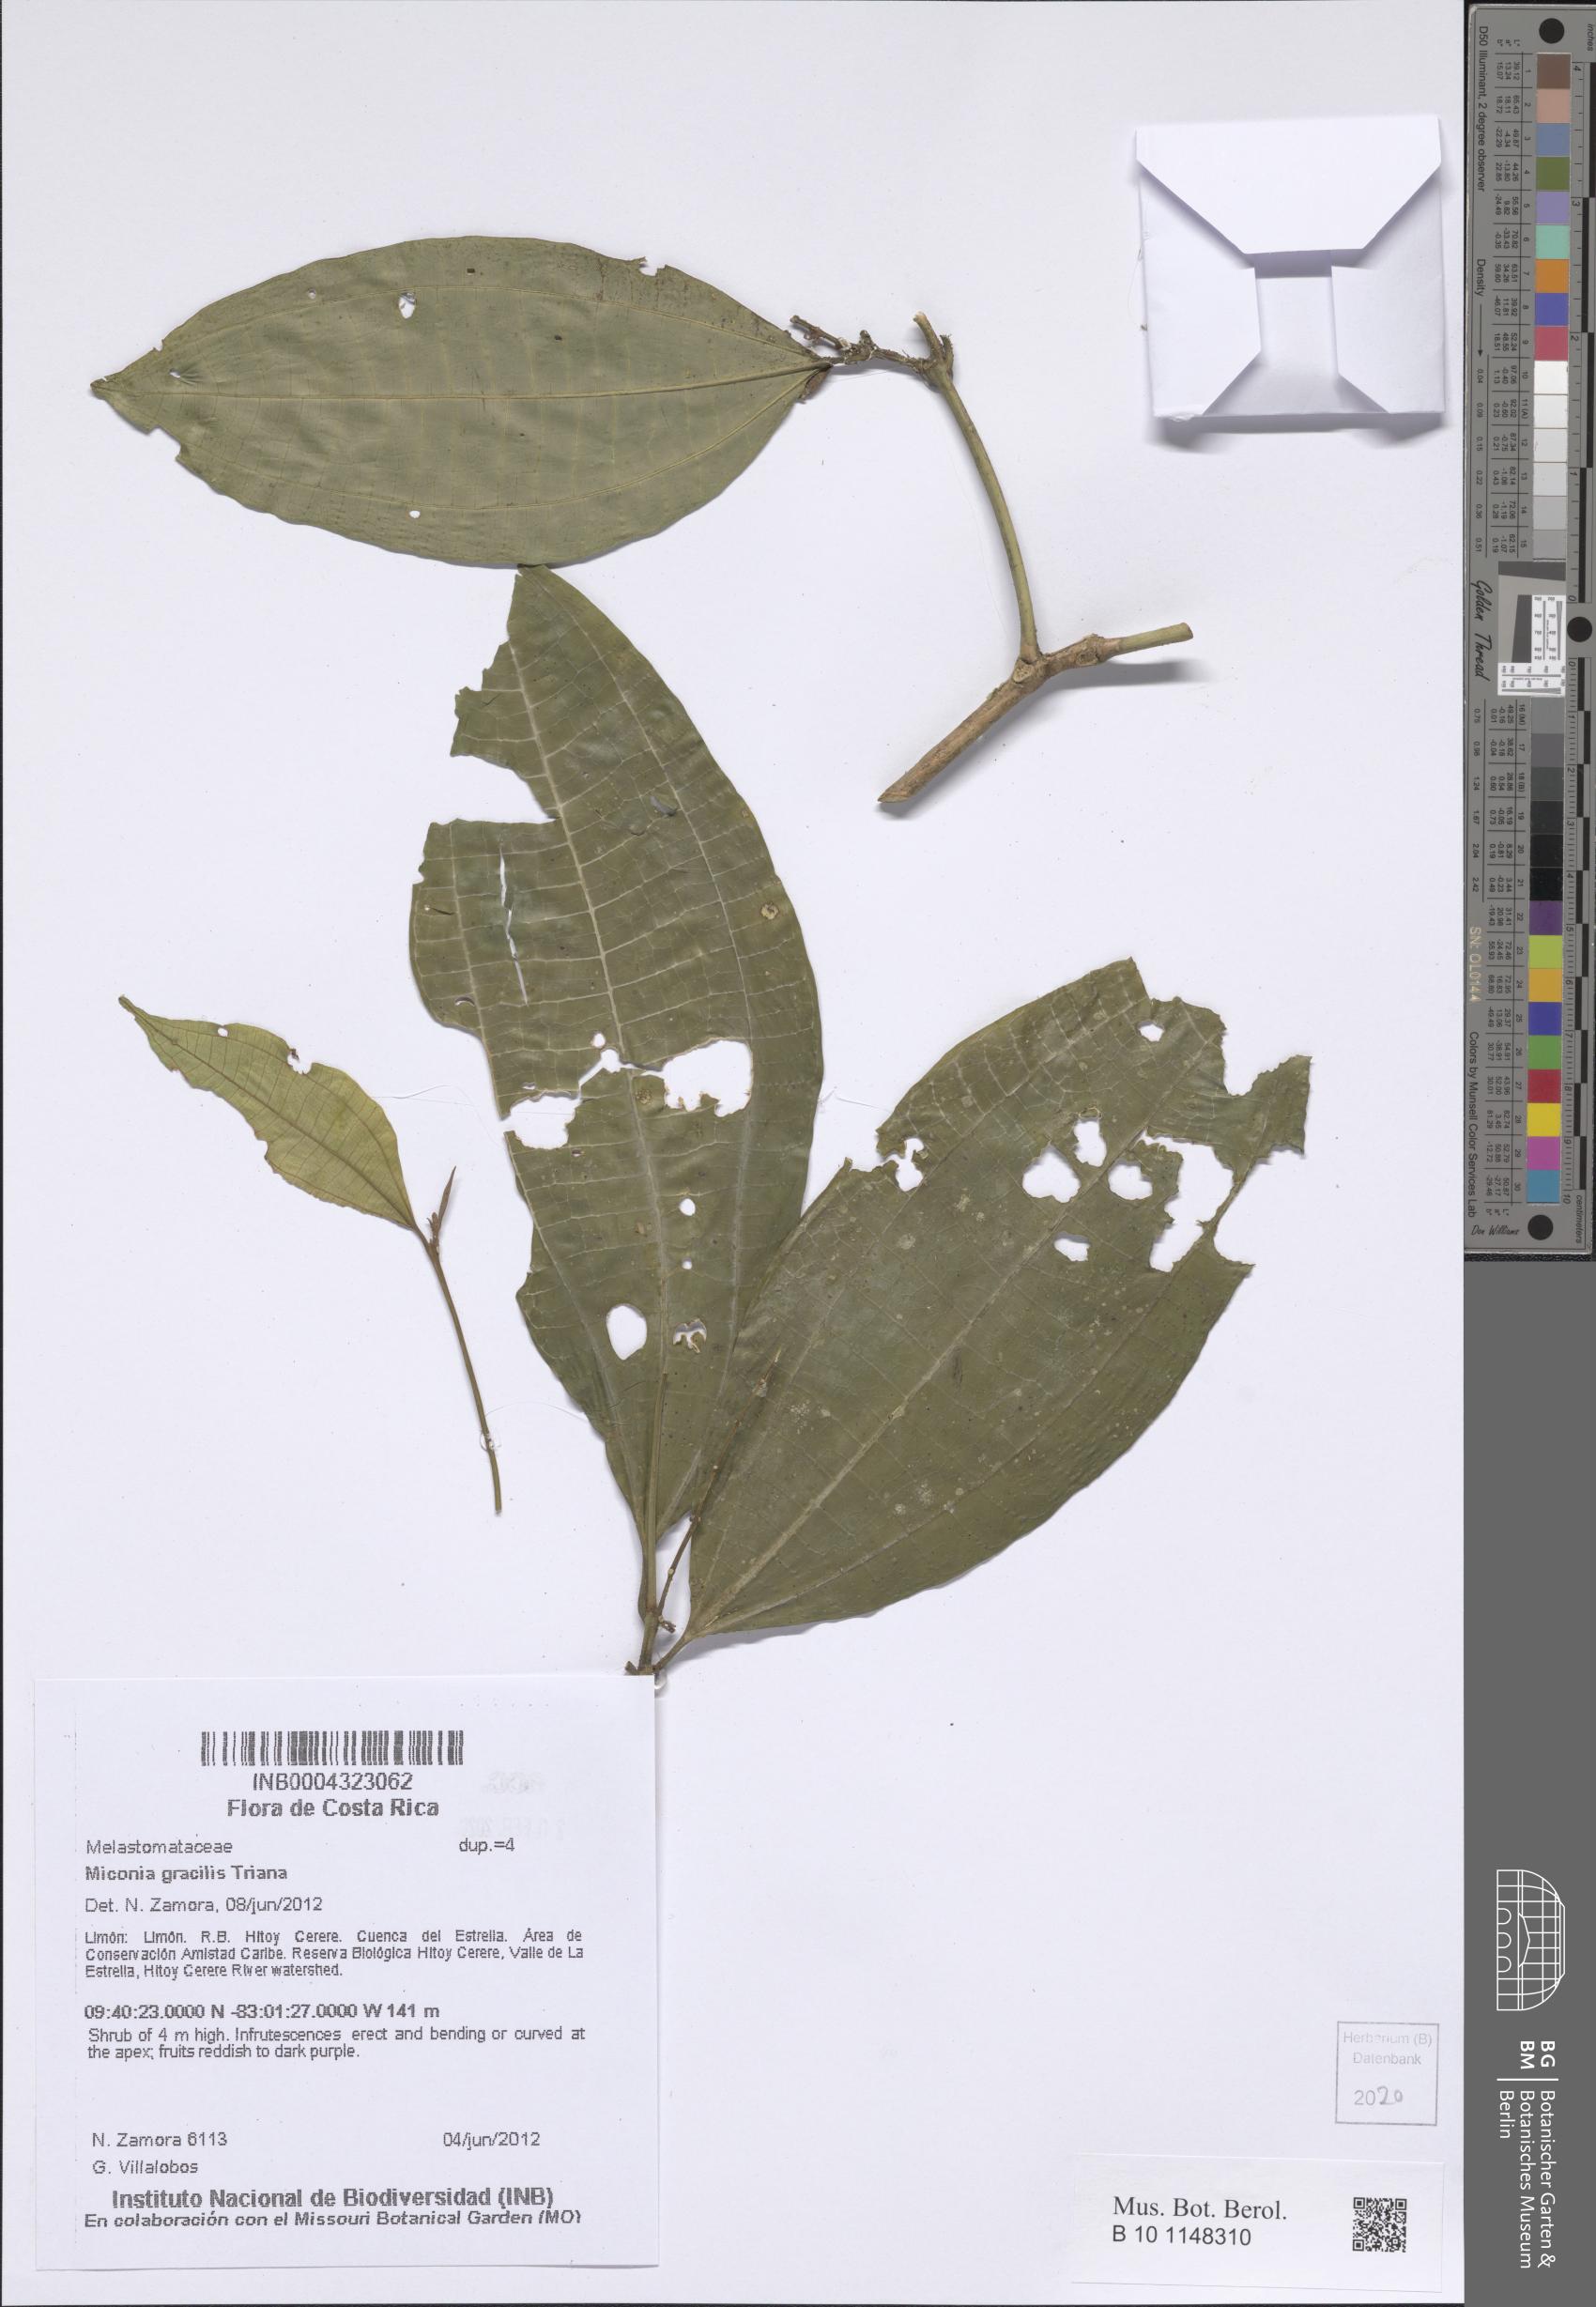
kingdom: Plantae
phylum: Tracheophyta
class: Magnoliopsida
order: Myrtales
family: Melastomataceae
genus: Miconia
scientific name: Miconia gracilis
